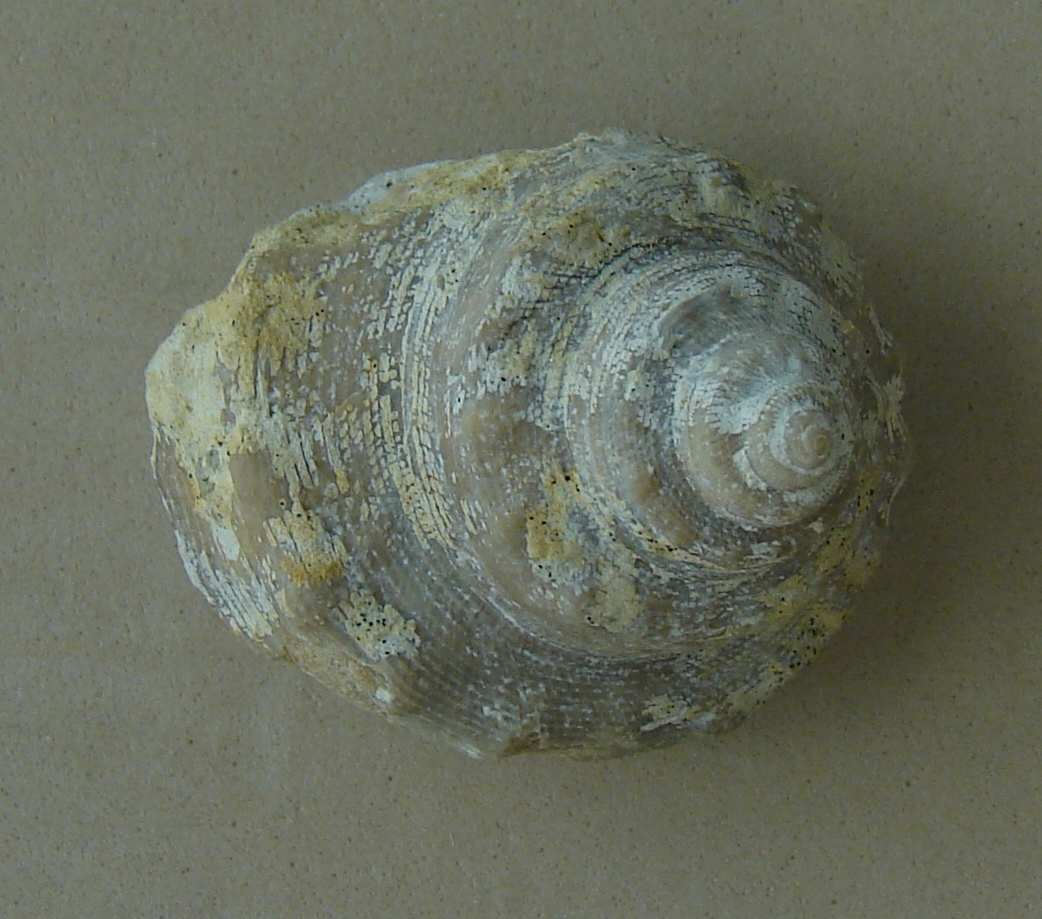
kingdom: Animalia
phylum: Mollusca
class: Gastropoda
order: Pleurotomariida
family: Pleurotomariidae
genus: Pleurotomaria
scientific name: Pleurotomaria
